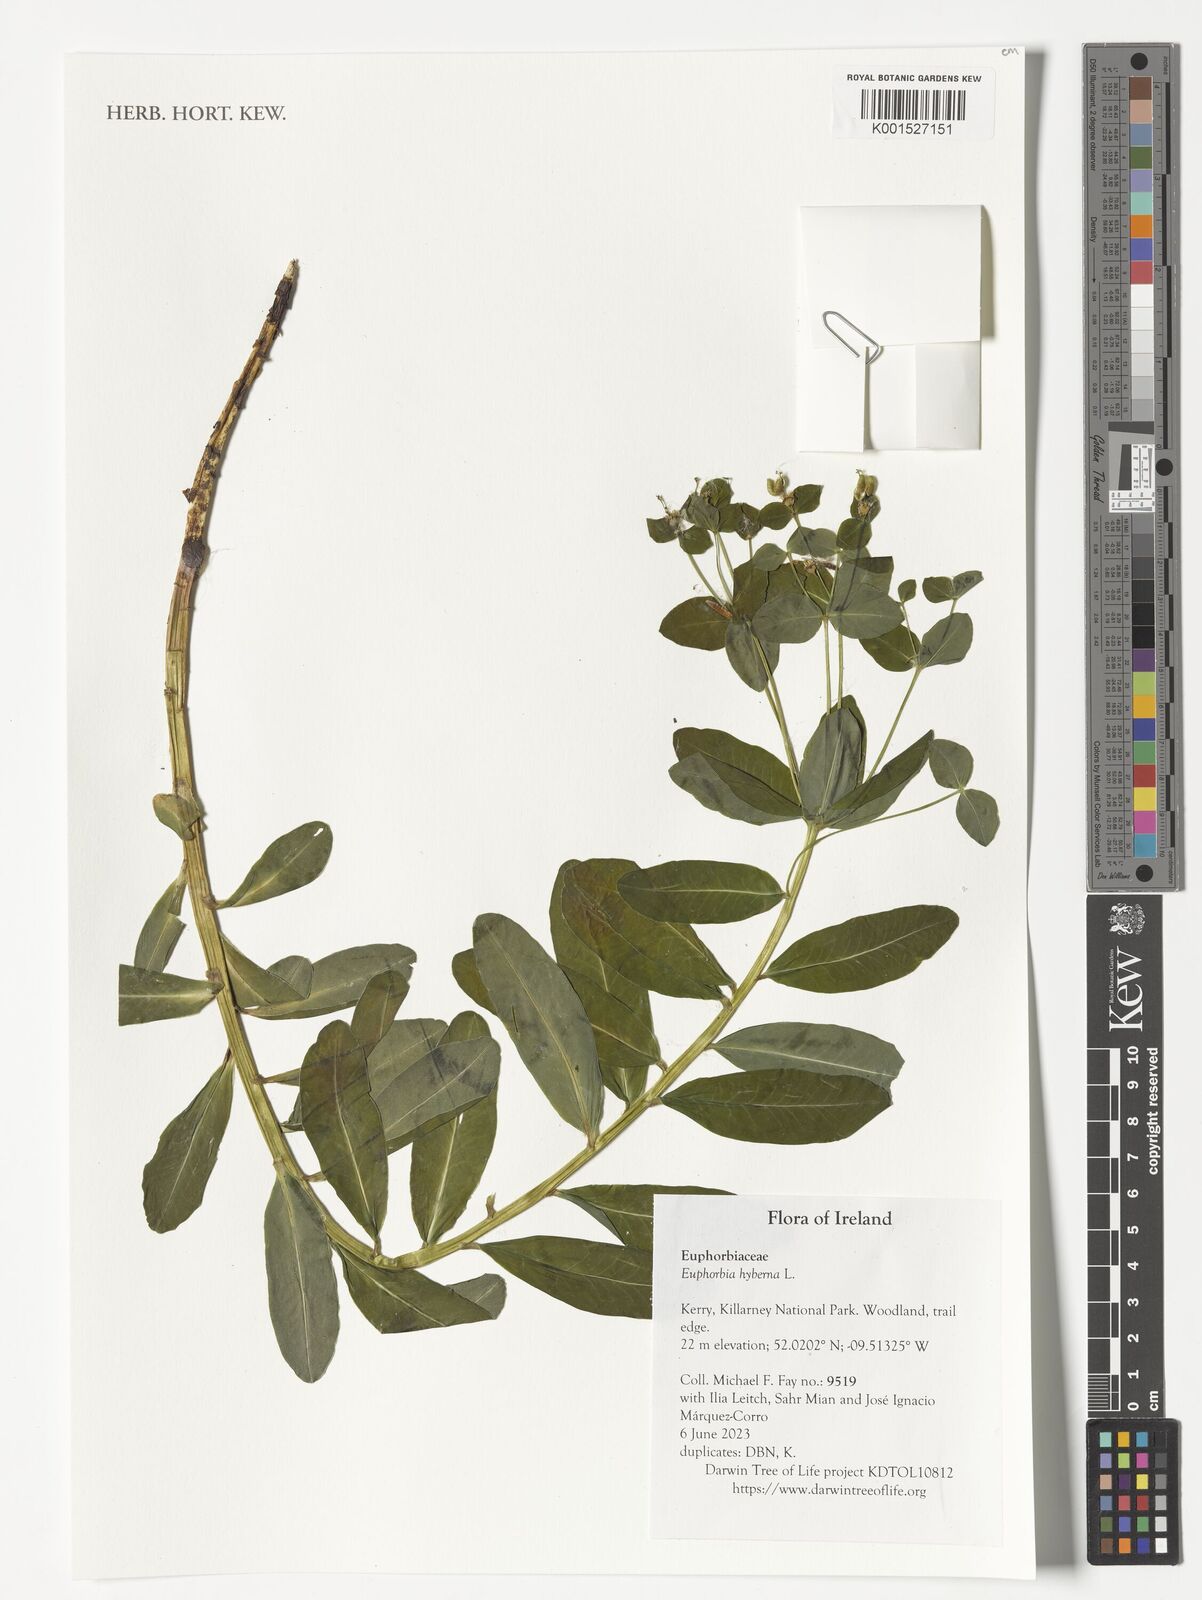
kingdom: Plantae
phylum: Tracheophyta
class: Magnoliopsida
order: Malpighiales
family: Euphorbiaceae
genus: Euphorbia
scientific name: Euphorbia hyberna
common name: Irish spurge
